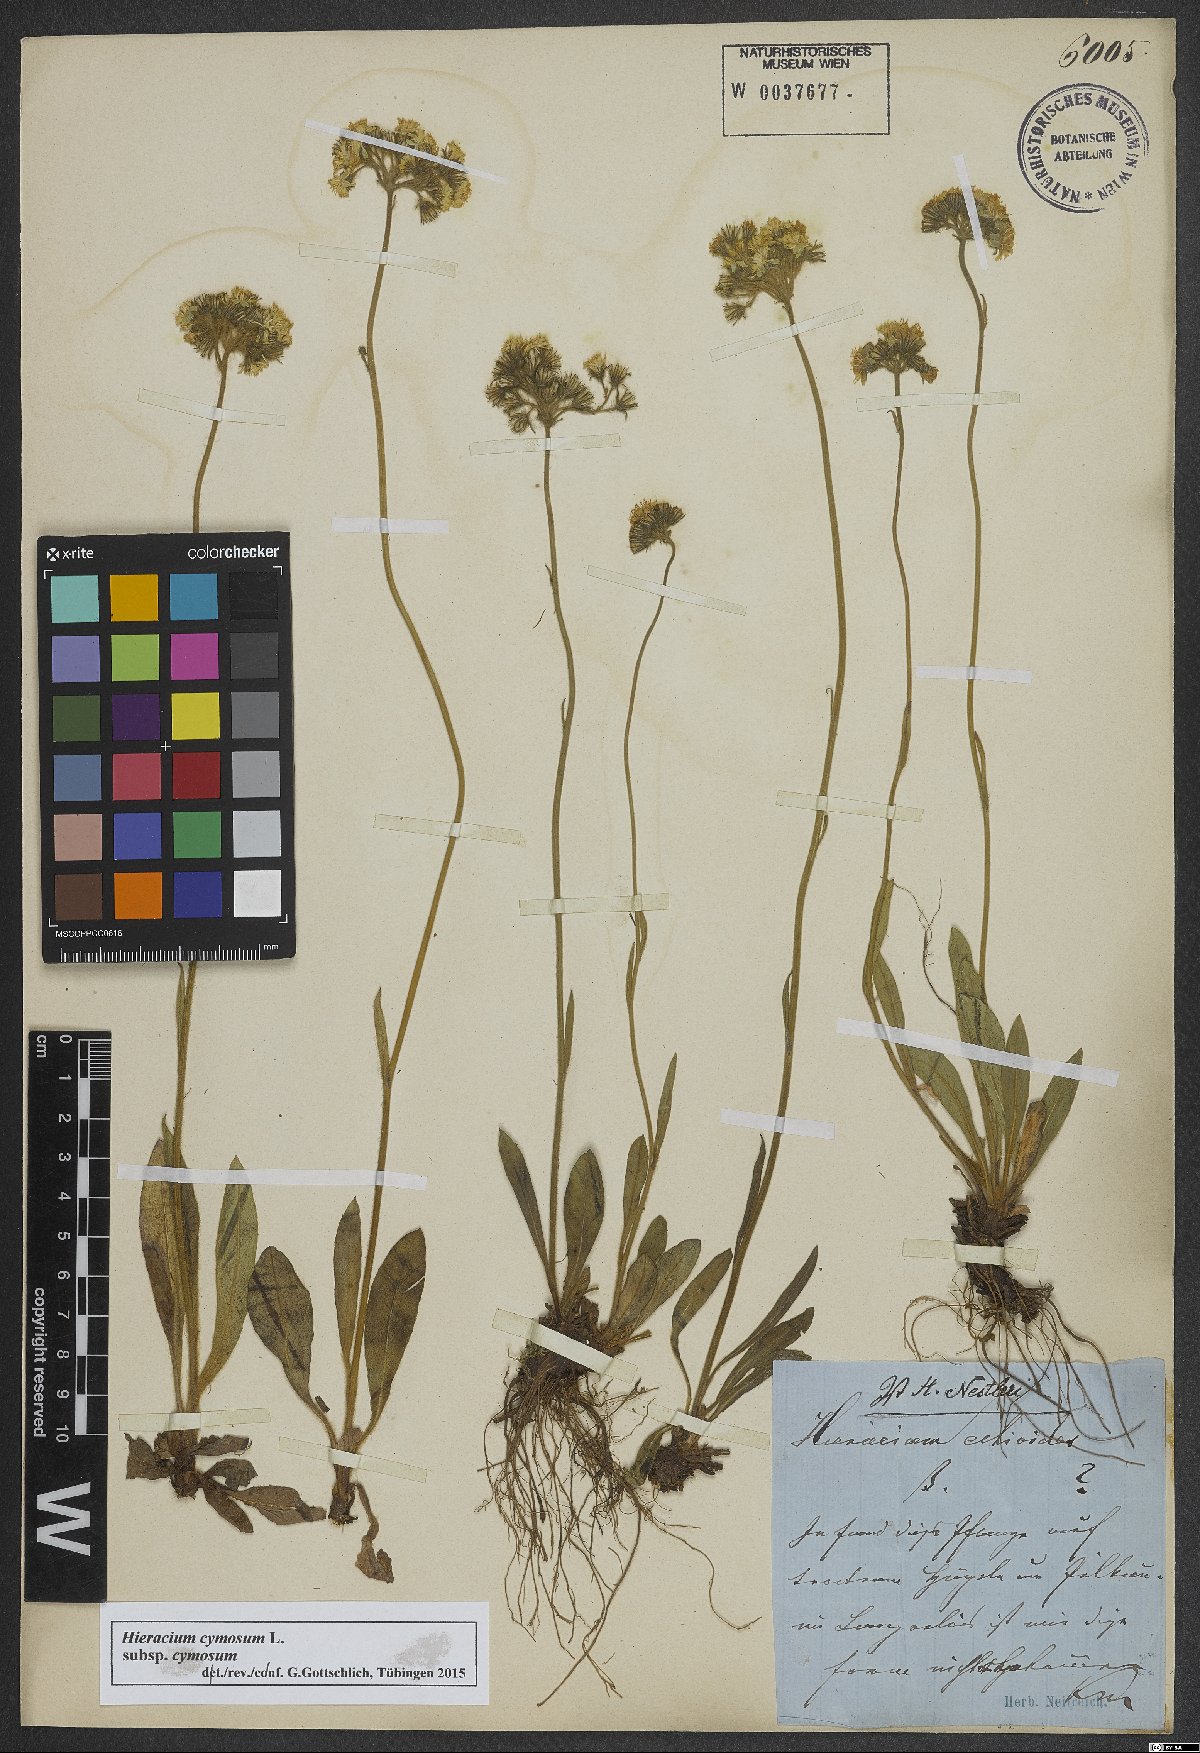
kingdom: Plantae
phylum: Tracheophyta
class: Magnoliopsida
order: Asterales
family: Asteraceae
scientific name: Asteraceae
